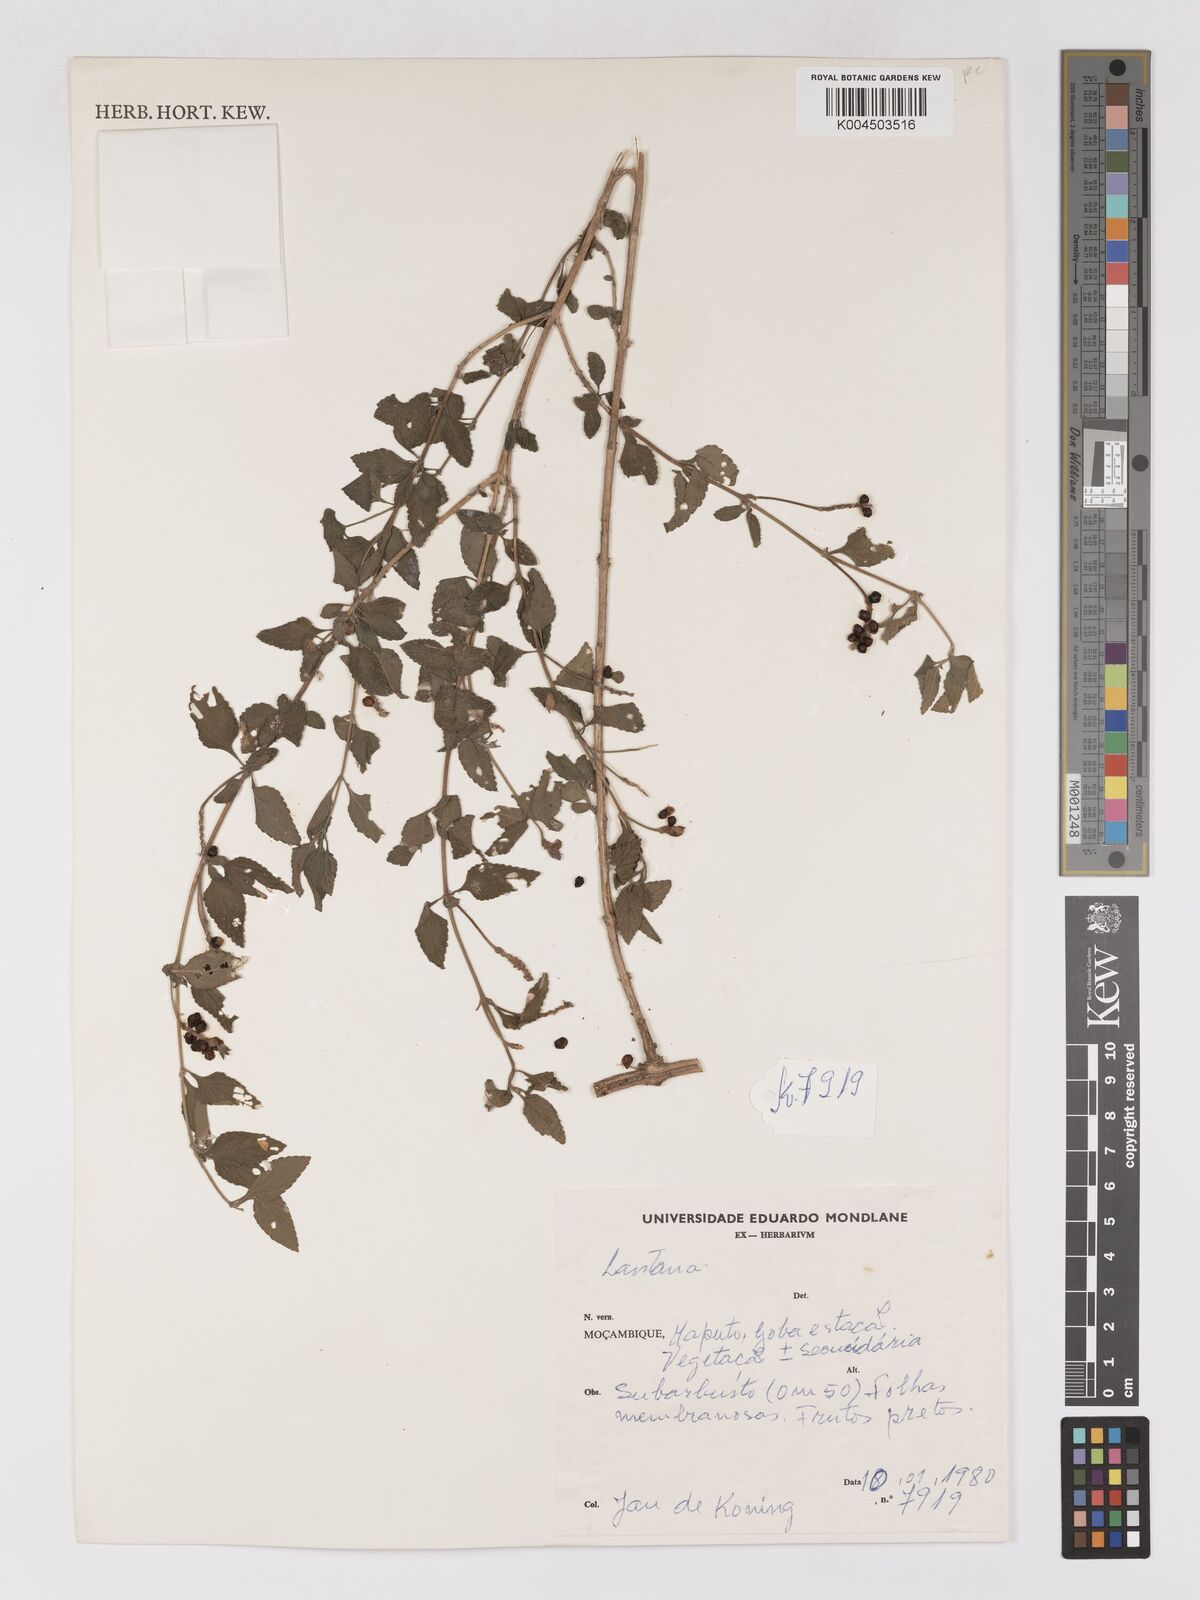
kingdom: Plantae
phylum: Tracheophyta
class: Magnoliopsida
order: Lamiales
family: Verbenaceae
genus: Lantana
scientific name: Lantana
